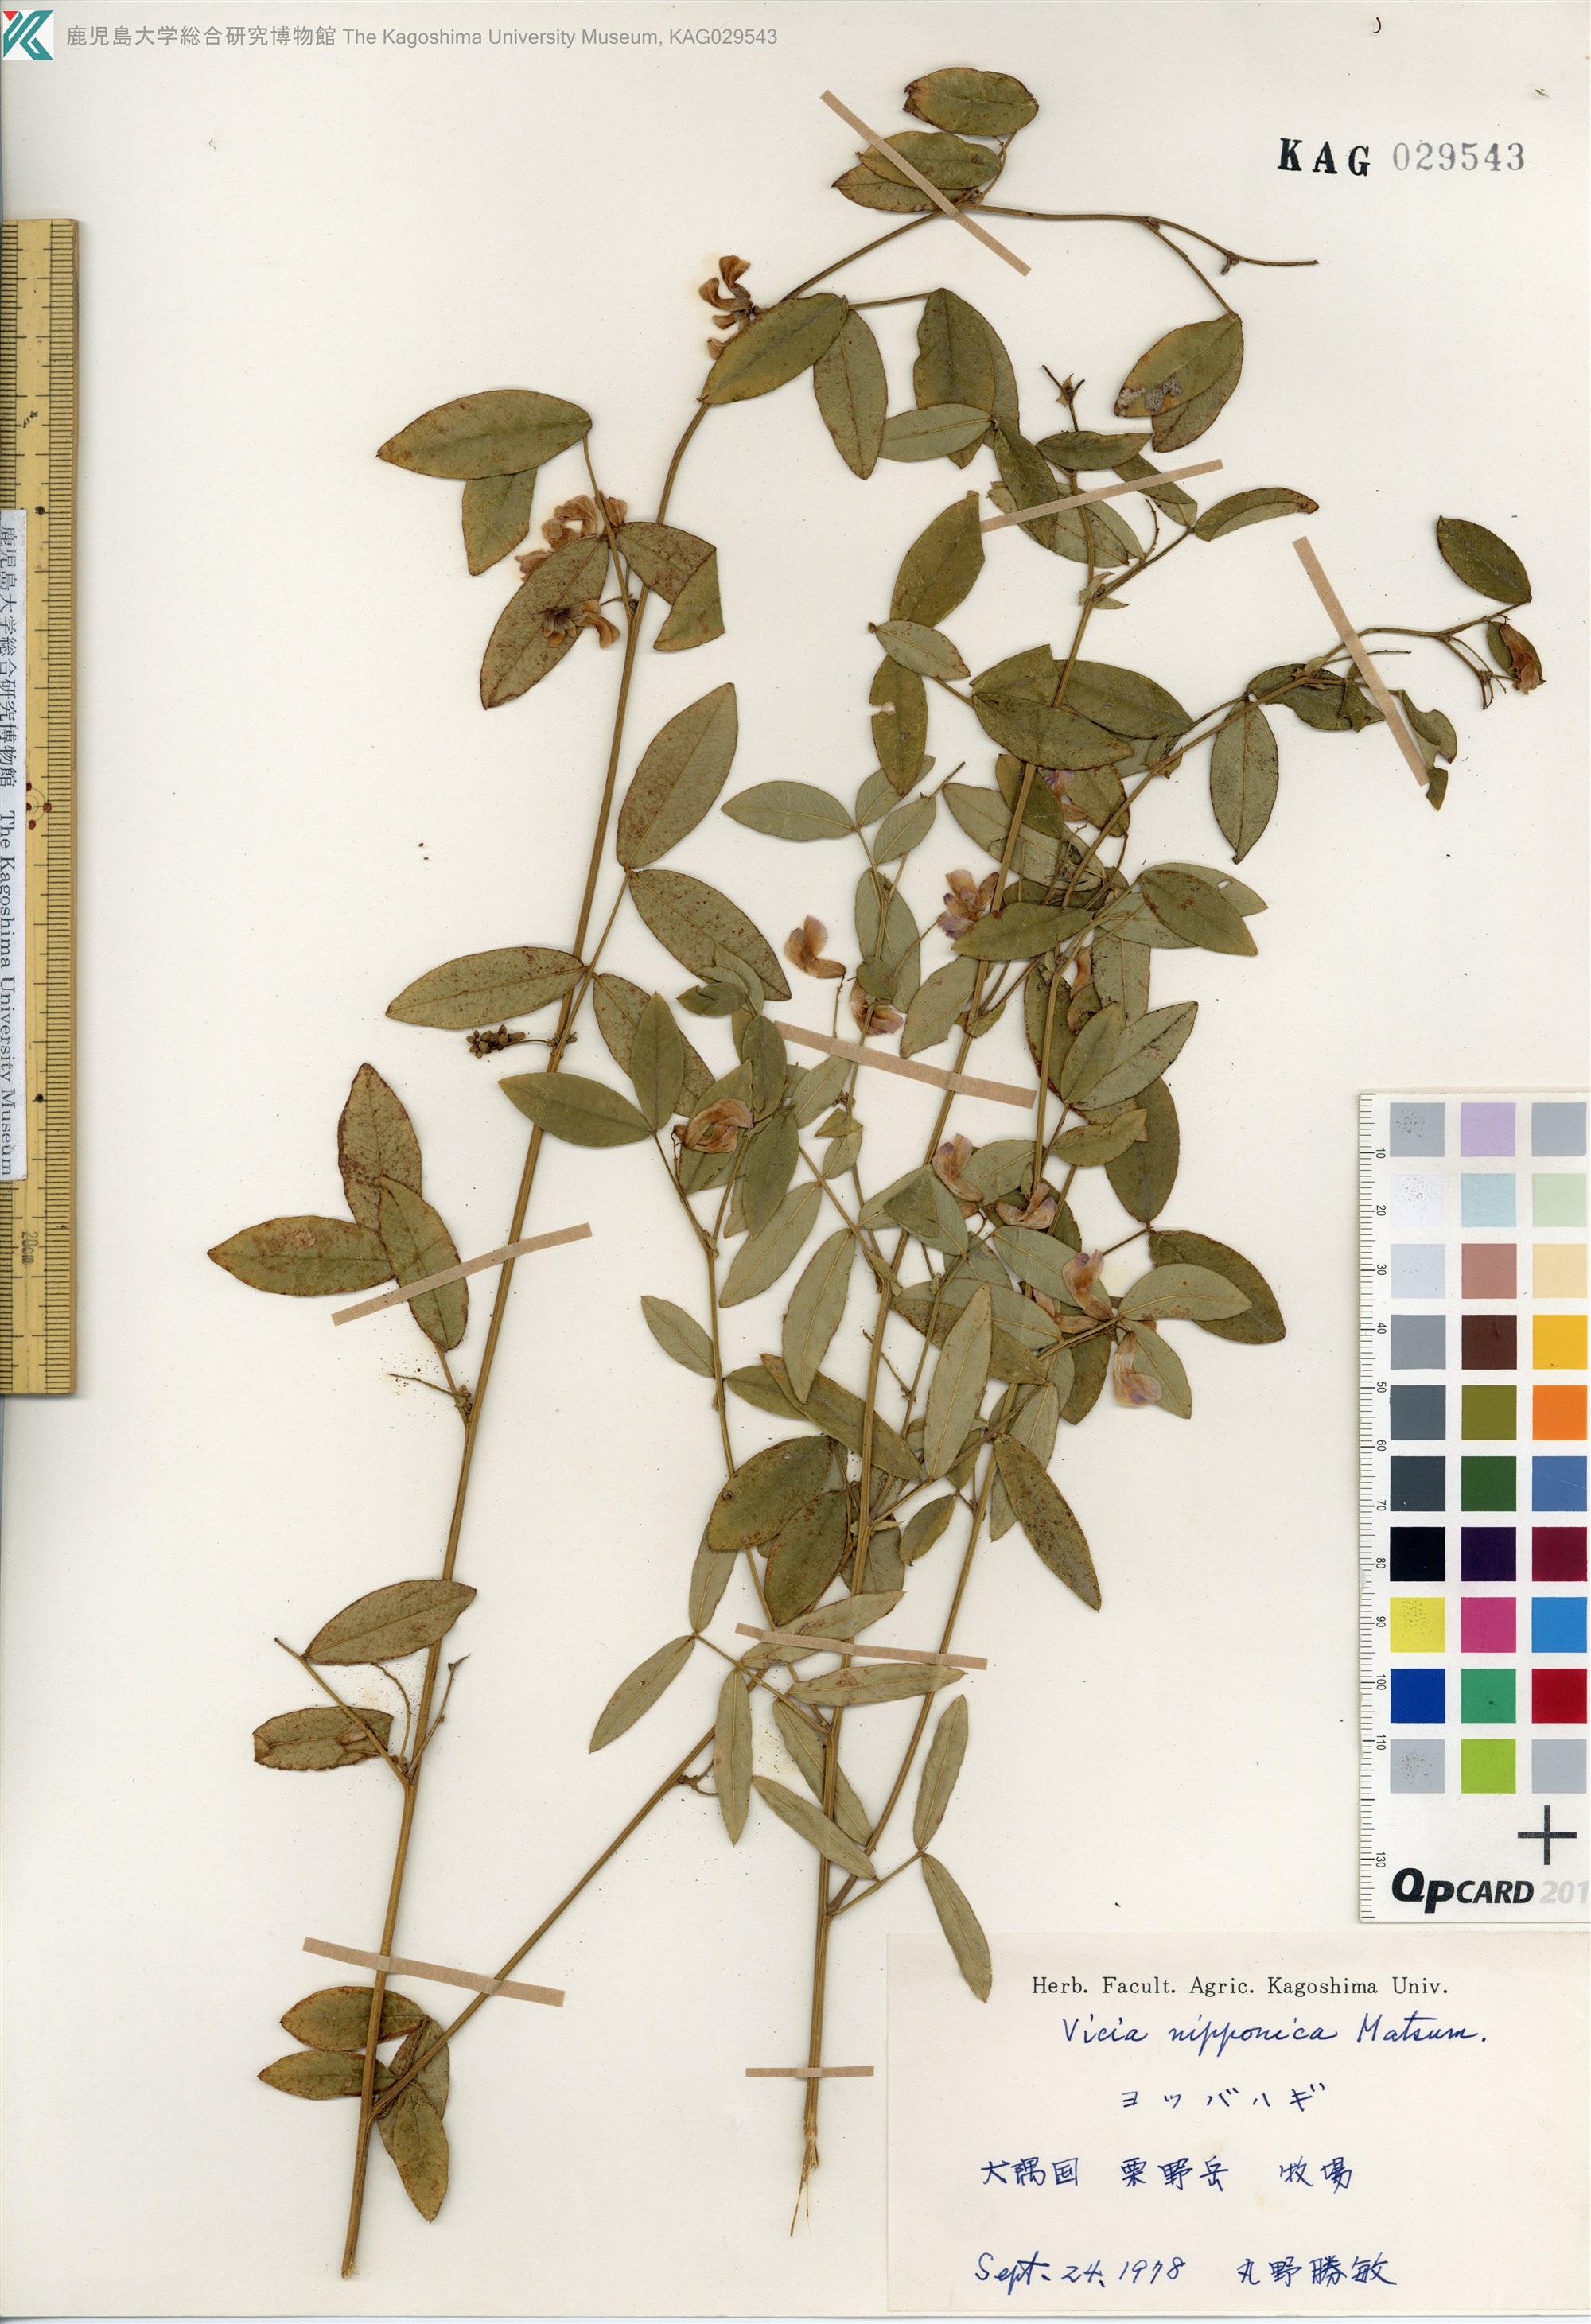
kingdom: Plantae
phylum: Tracheophyta
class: Magnoliopsida
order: Fabales
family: Fabaceae
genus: Vicia
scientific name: Vicia nipponica
